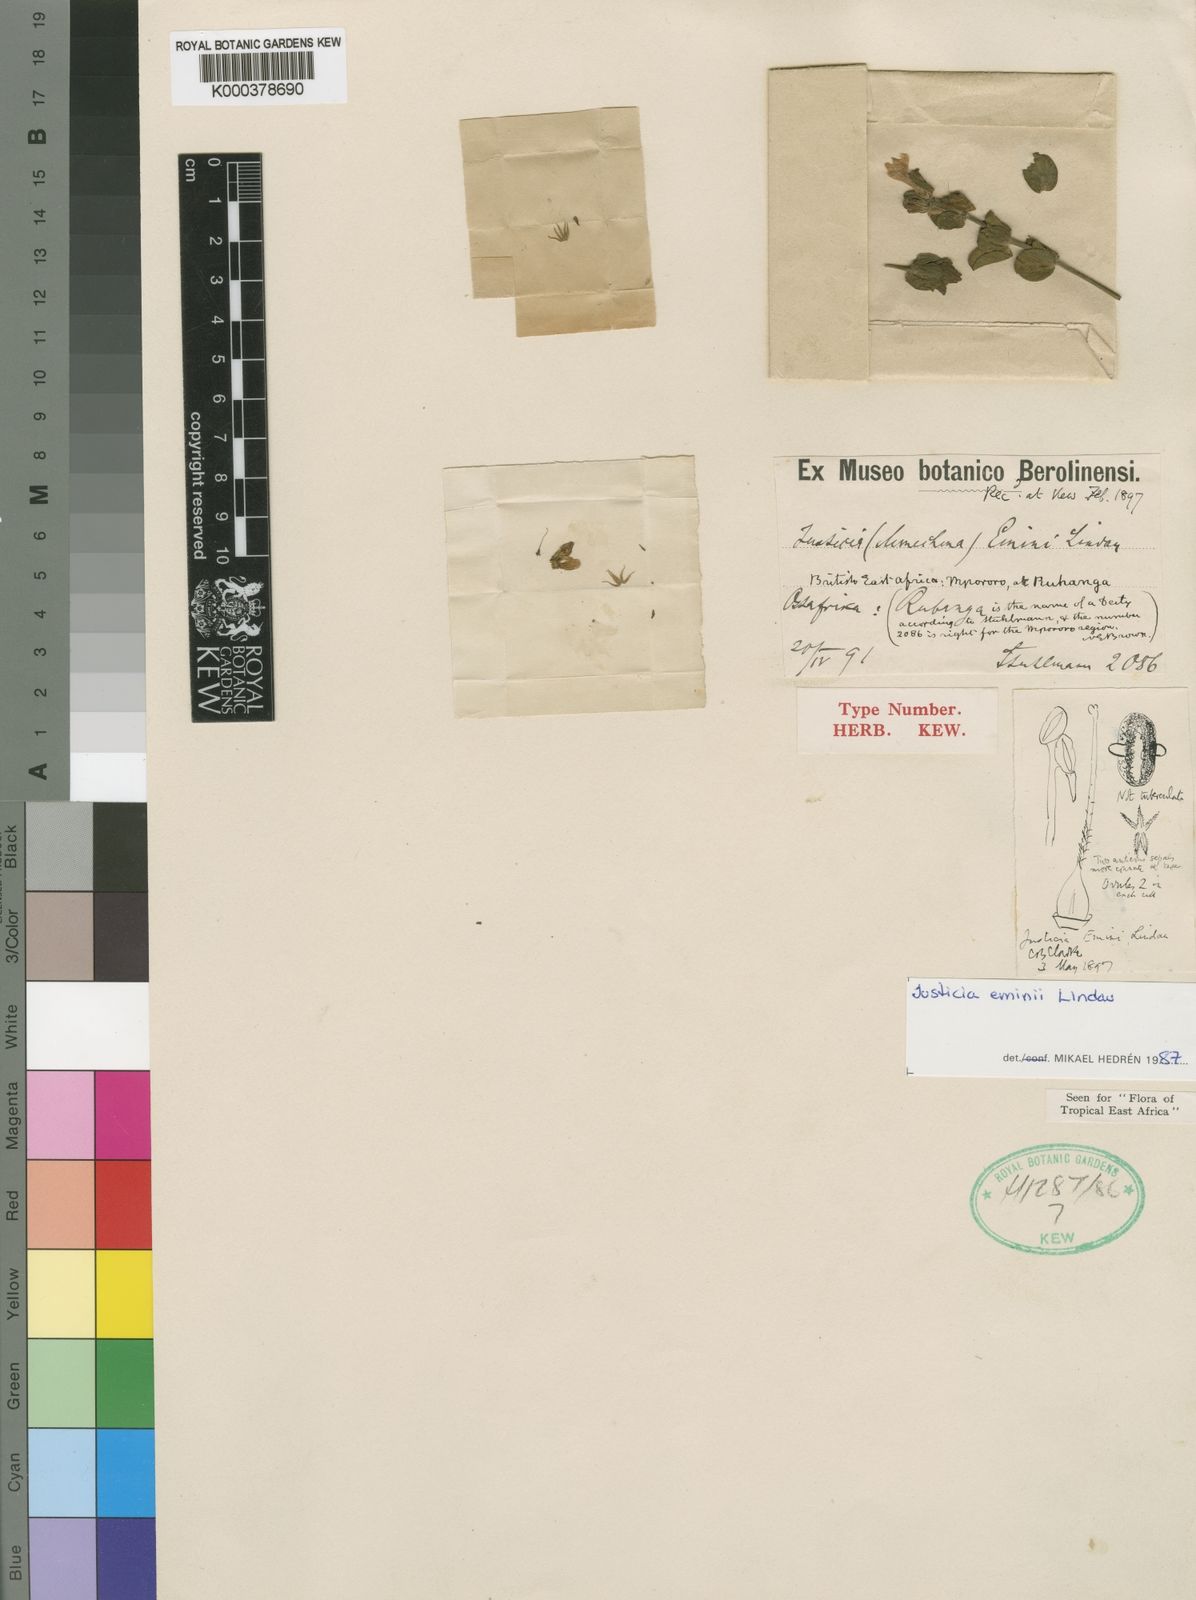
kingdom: Plantae
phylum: Tracheophyta
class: Magnoliopsida
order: Lamiales
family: Acanthaceae
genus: Monechma
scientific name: Monechma
